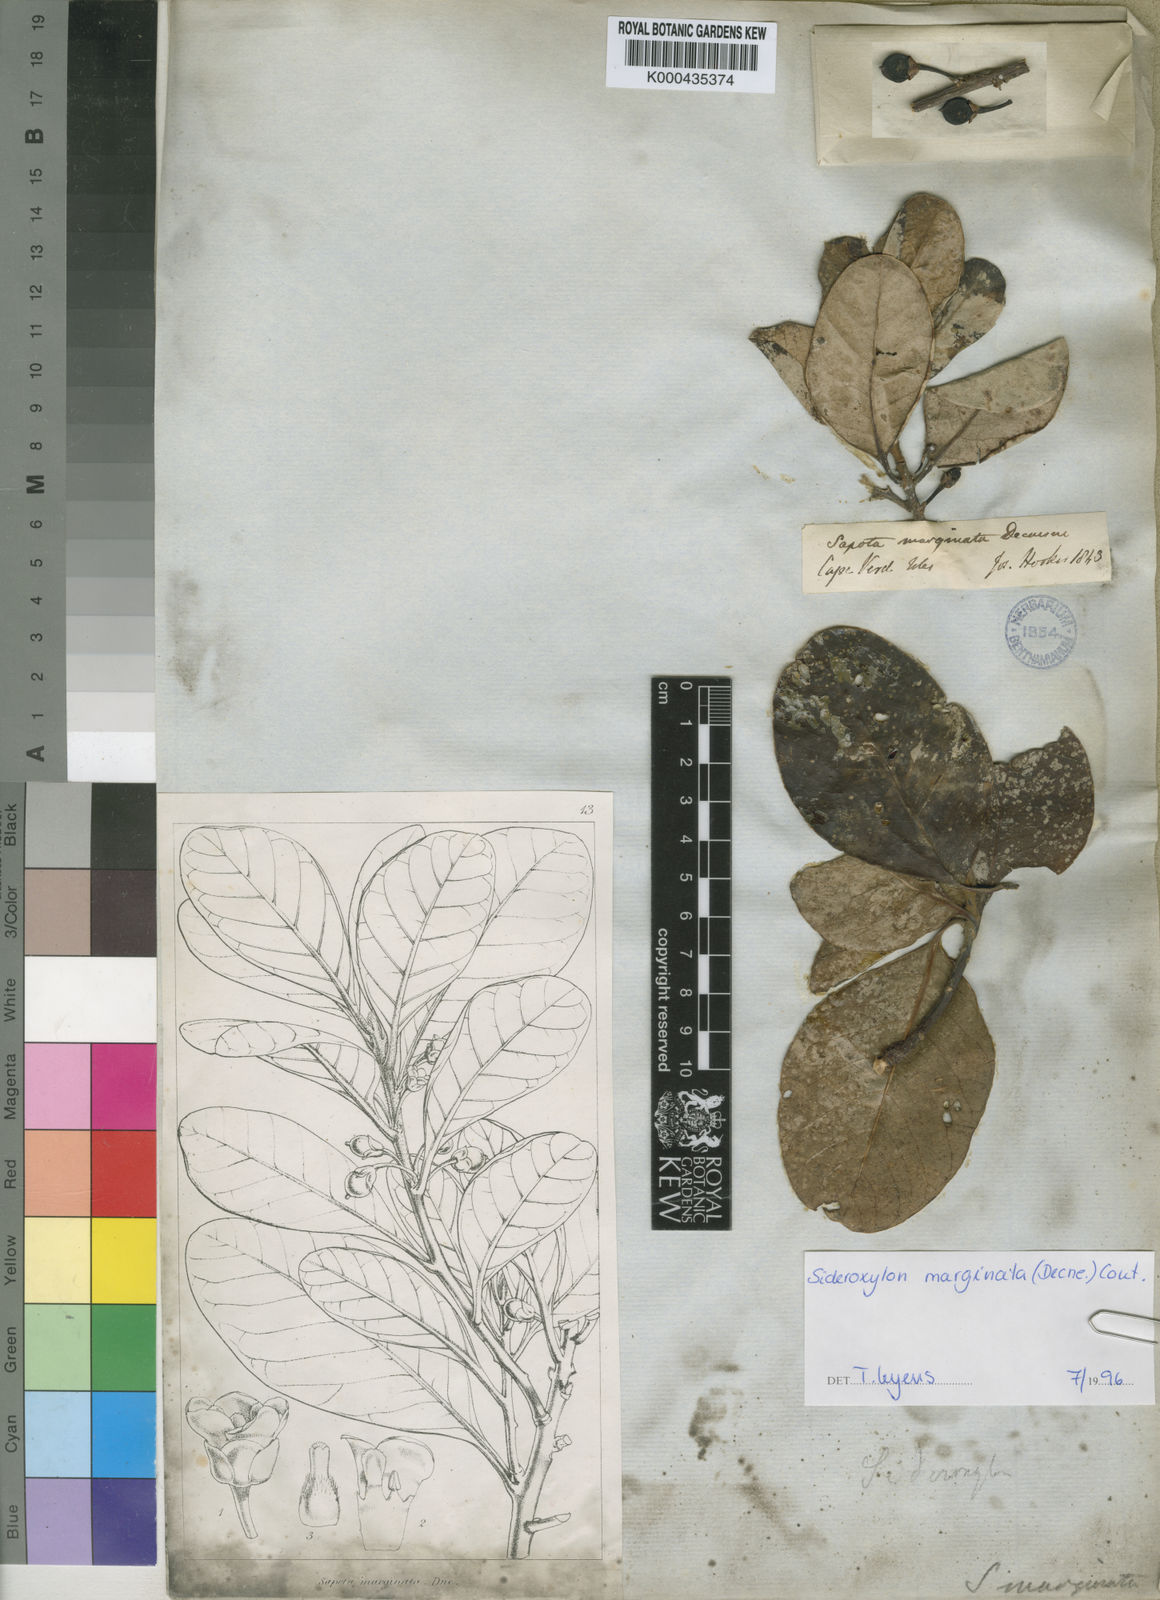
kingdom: Plantae
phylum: Tracheophyta
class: Magnoliopsida
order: Ericales
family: Sapotaceae
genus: Sideroxylon
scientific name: Sideroxylon marginatum
